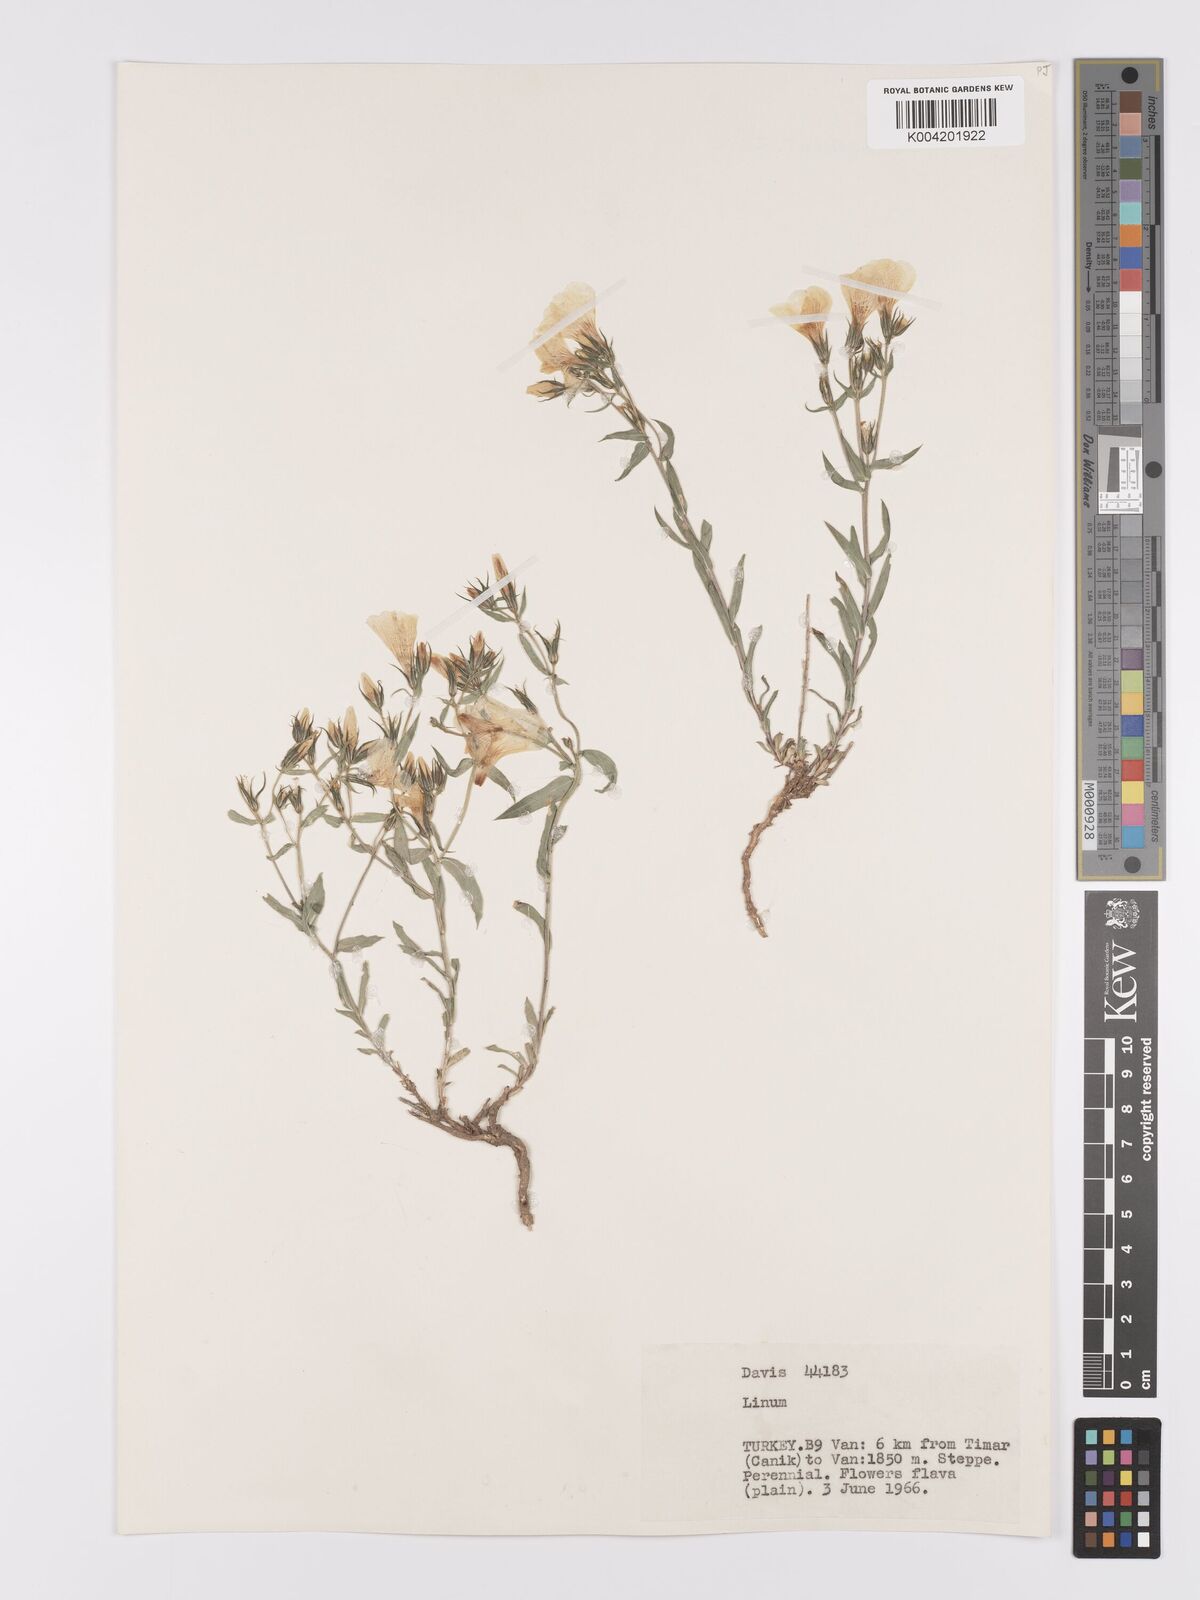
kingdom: Plantae
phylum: Tracheophyta
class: Magnoliopsida
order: Malpighiales
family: Linaceae
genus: Linum
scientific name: Linum
